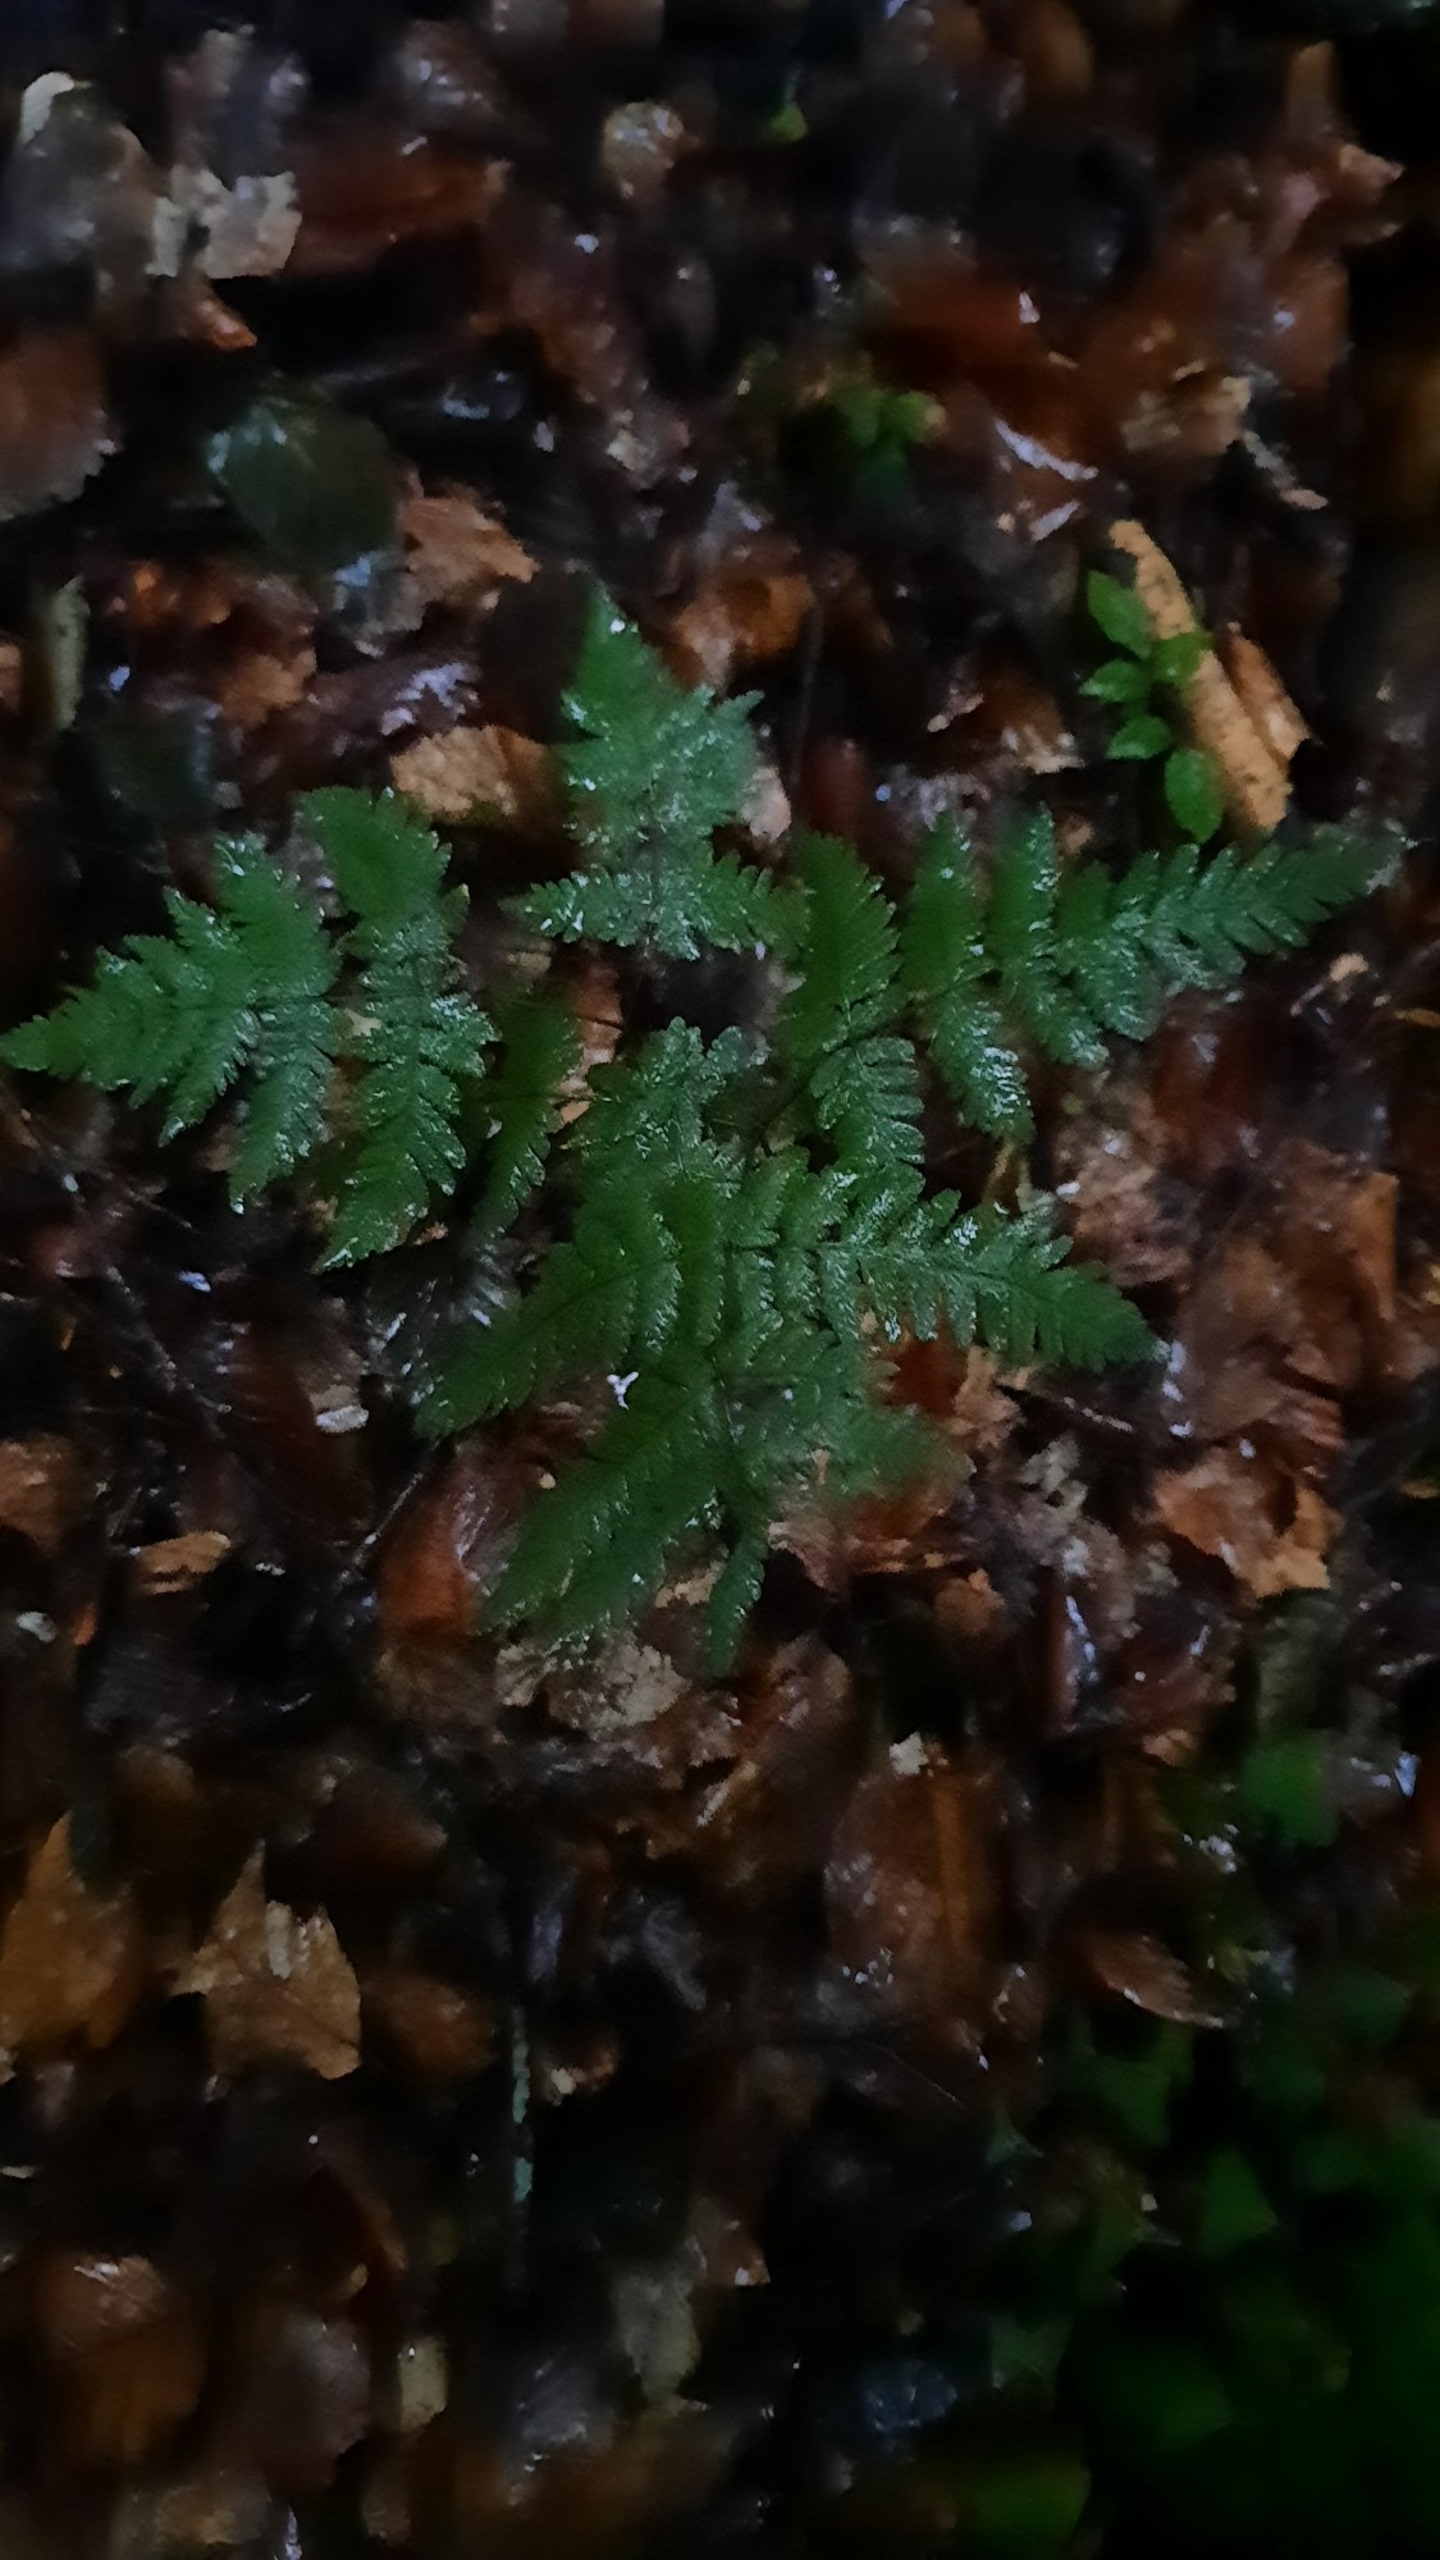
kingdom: Plantae
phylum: Tracheophyta
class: Polypodiopsida
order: Polypodiales
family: Cystopteridaceae
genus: Gymnocarpium
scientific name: Gymnocarpium dryopteris
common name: Tredelt egebregne
